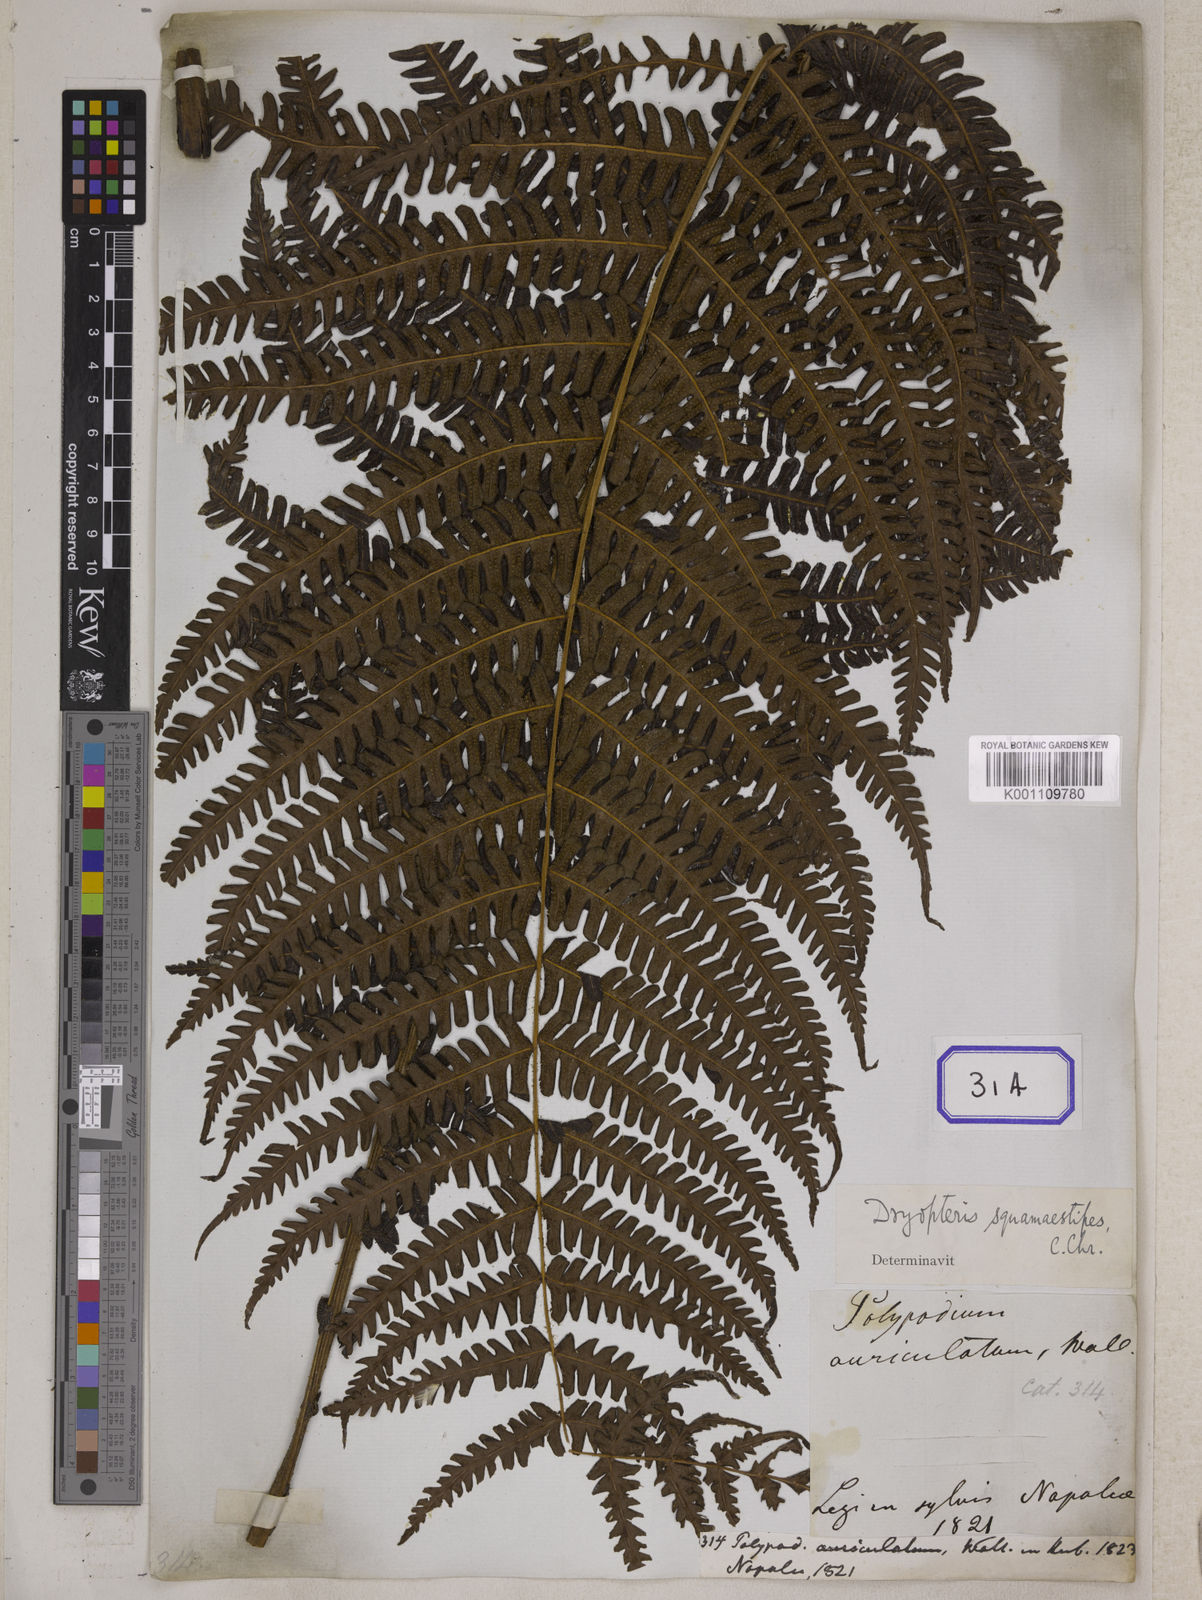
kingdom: Plantae
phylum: Tracheophyta
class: Polypodiopsida
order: Polypodiales
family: Polypodiaceae
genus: Polypodium
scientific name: Polypodium
